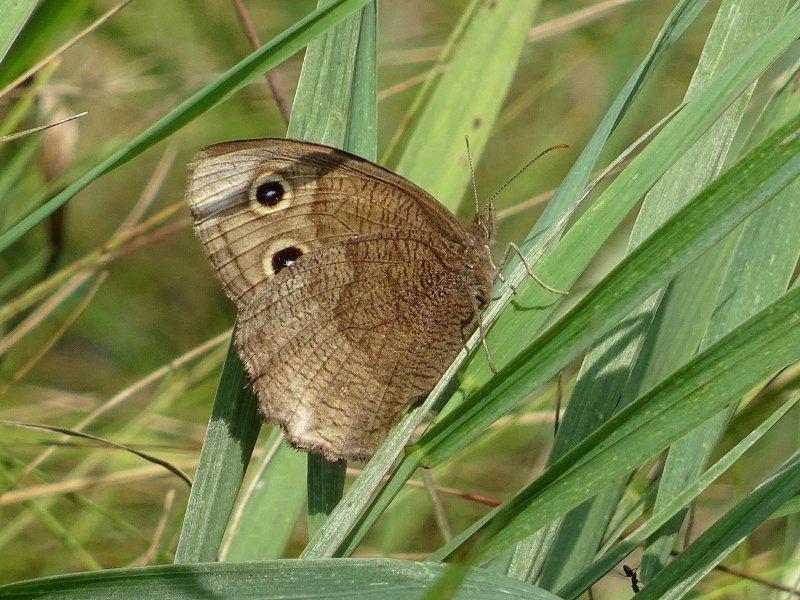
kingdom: Animalia
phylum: Arthropoda
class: Insecta
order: Lepidoptera
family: Nymphalidae
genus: Cercyonis
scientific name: Cercyonis pegala
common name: Common Wood-Nymph
